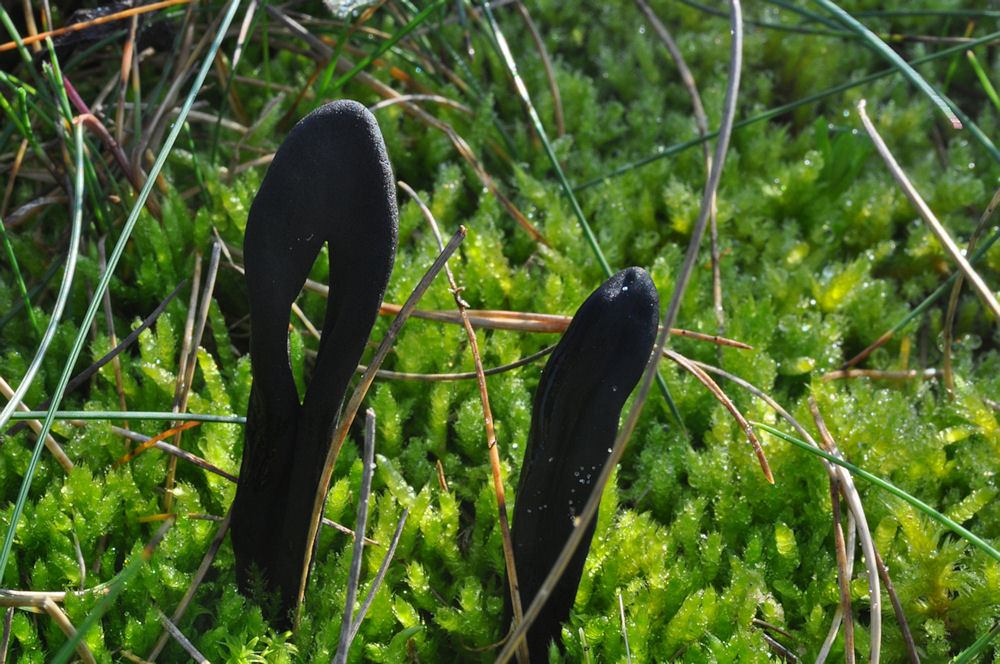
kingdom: Fungi
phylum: Ascomycota
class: Geoglossomycetes
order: Geoglossales
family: Geoglossaceae
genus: Geoglossum
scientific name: Geoglossum cookeianum
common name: bred jordtunge
